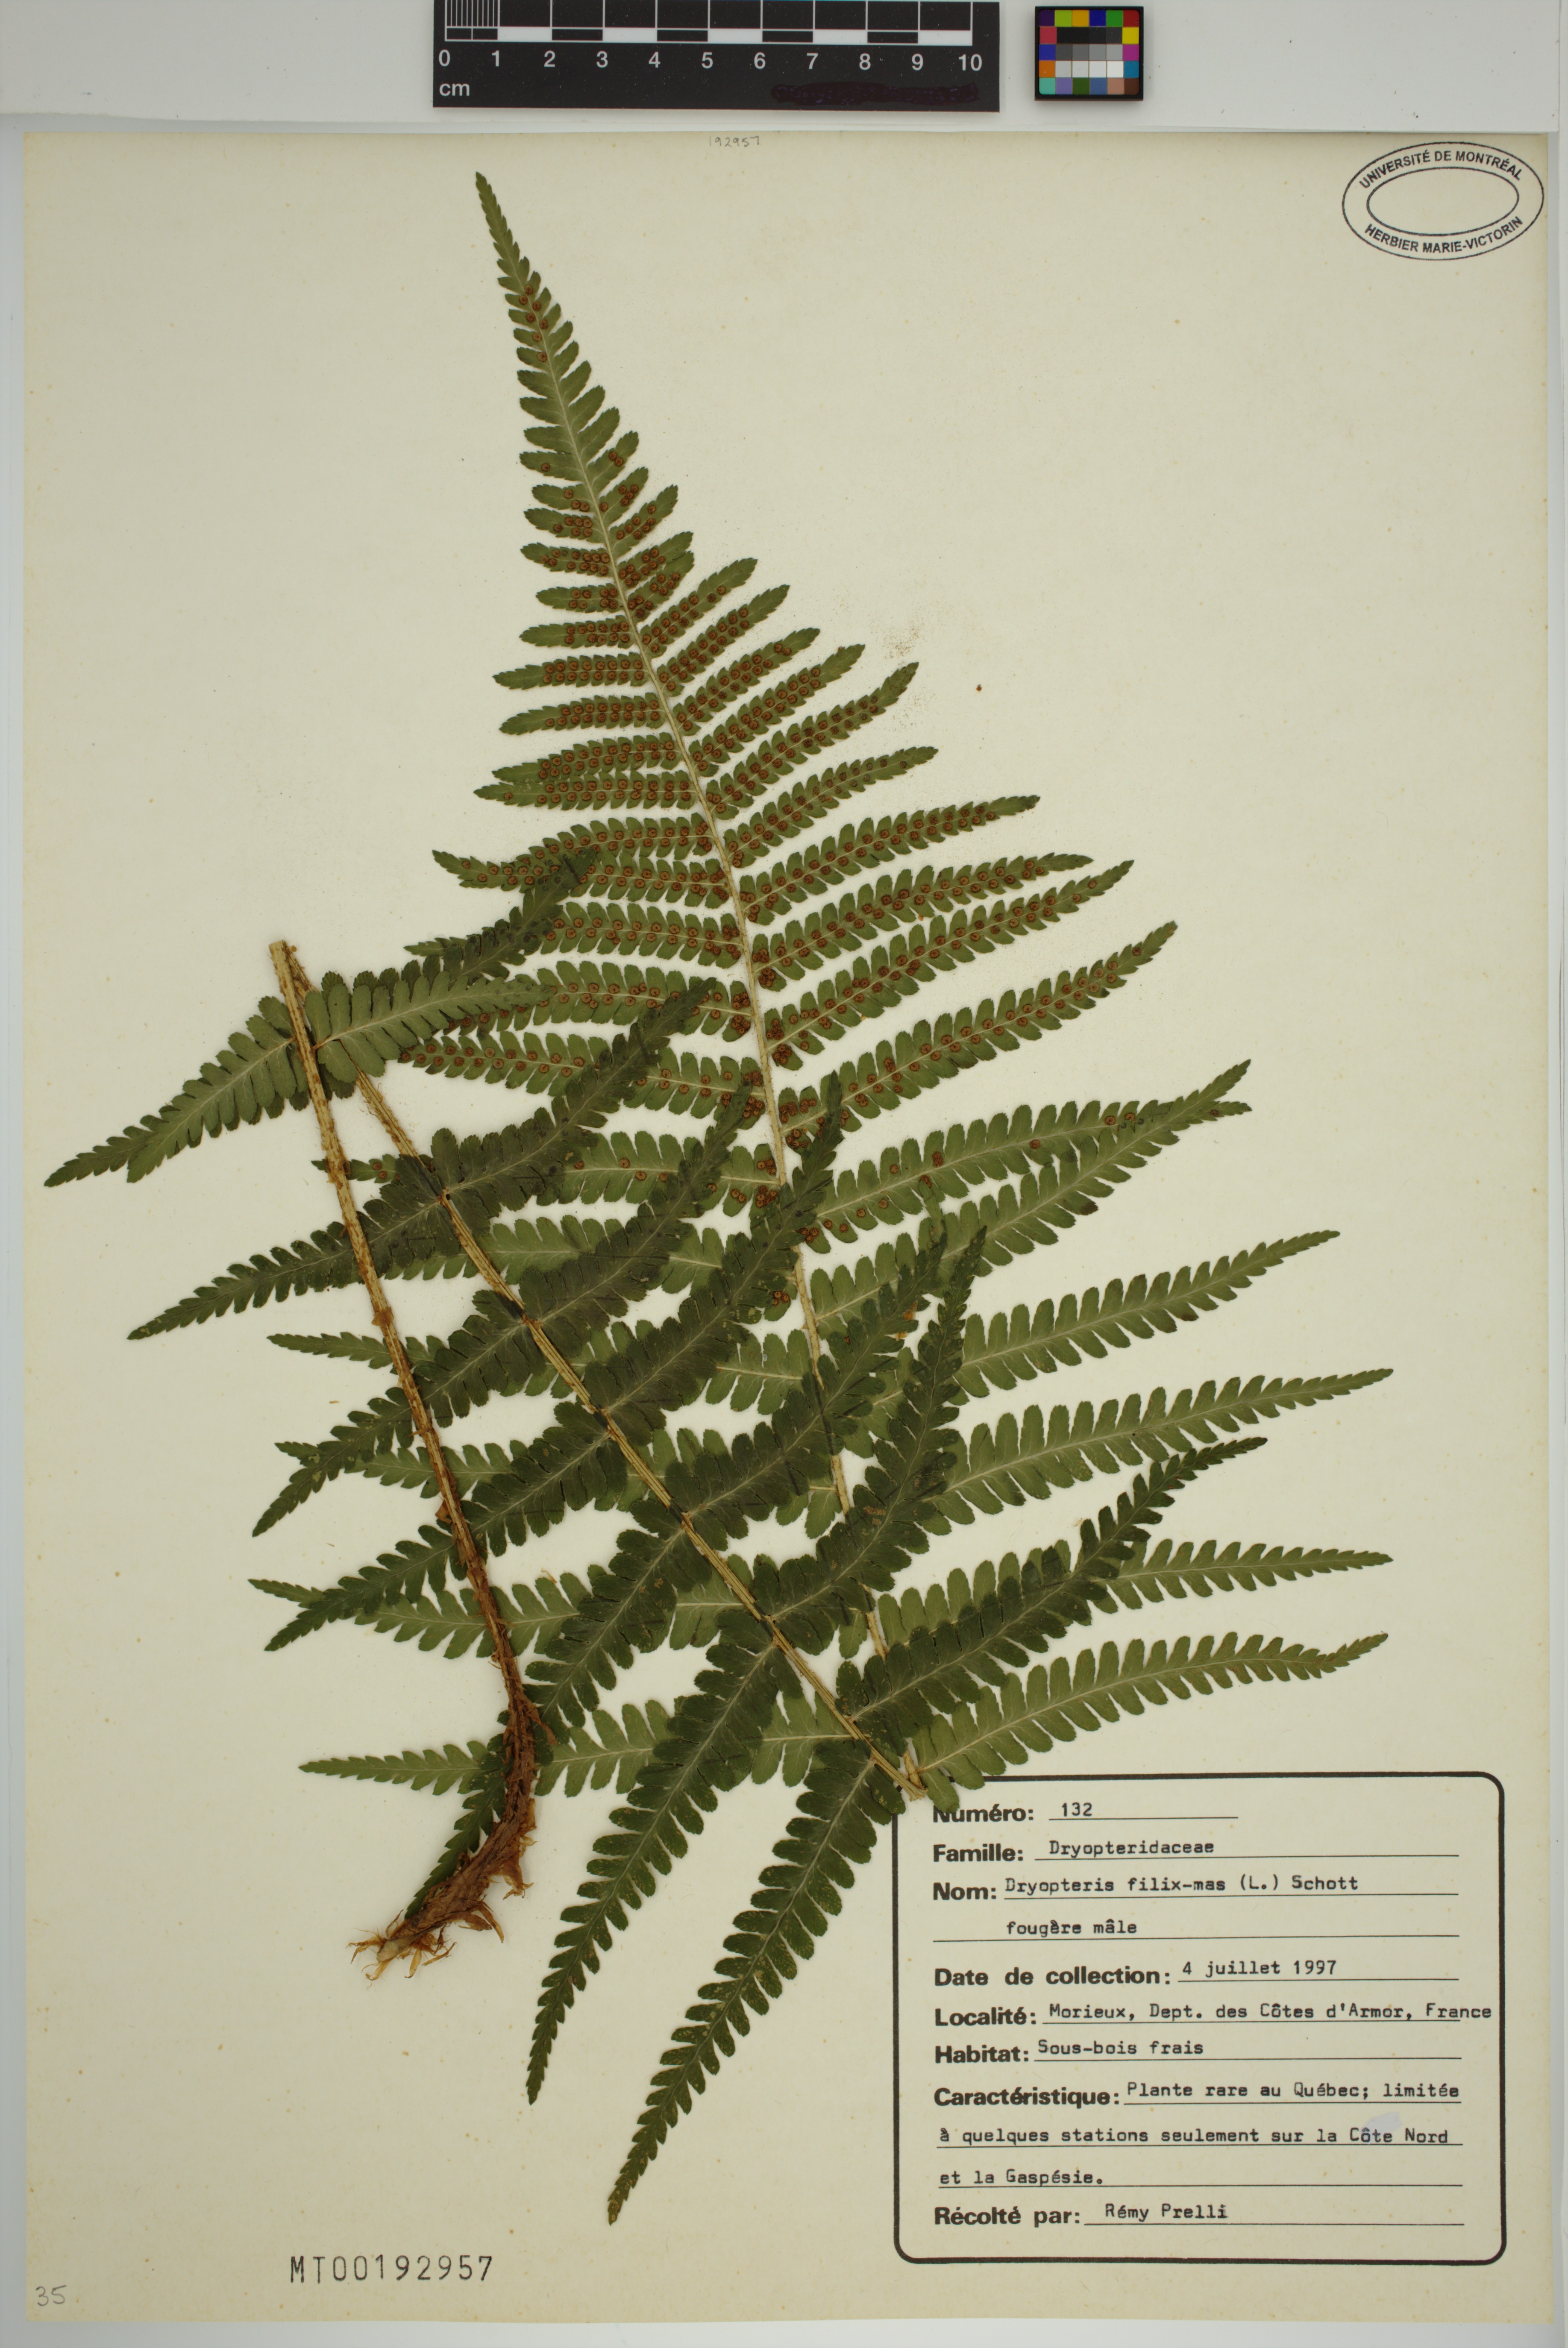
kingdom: Plantae
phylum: Tracheophyta
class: Polypodiopsida
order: Polypodiales
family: Dryopteridaceae
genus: Dryopteris
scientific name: Dryopteris filix-mas
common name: Male fern
